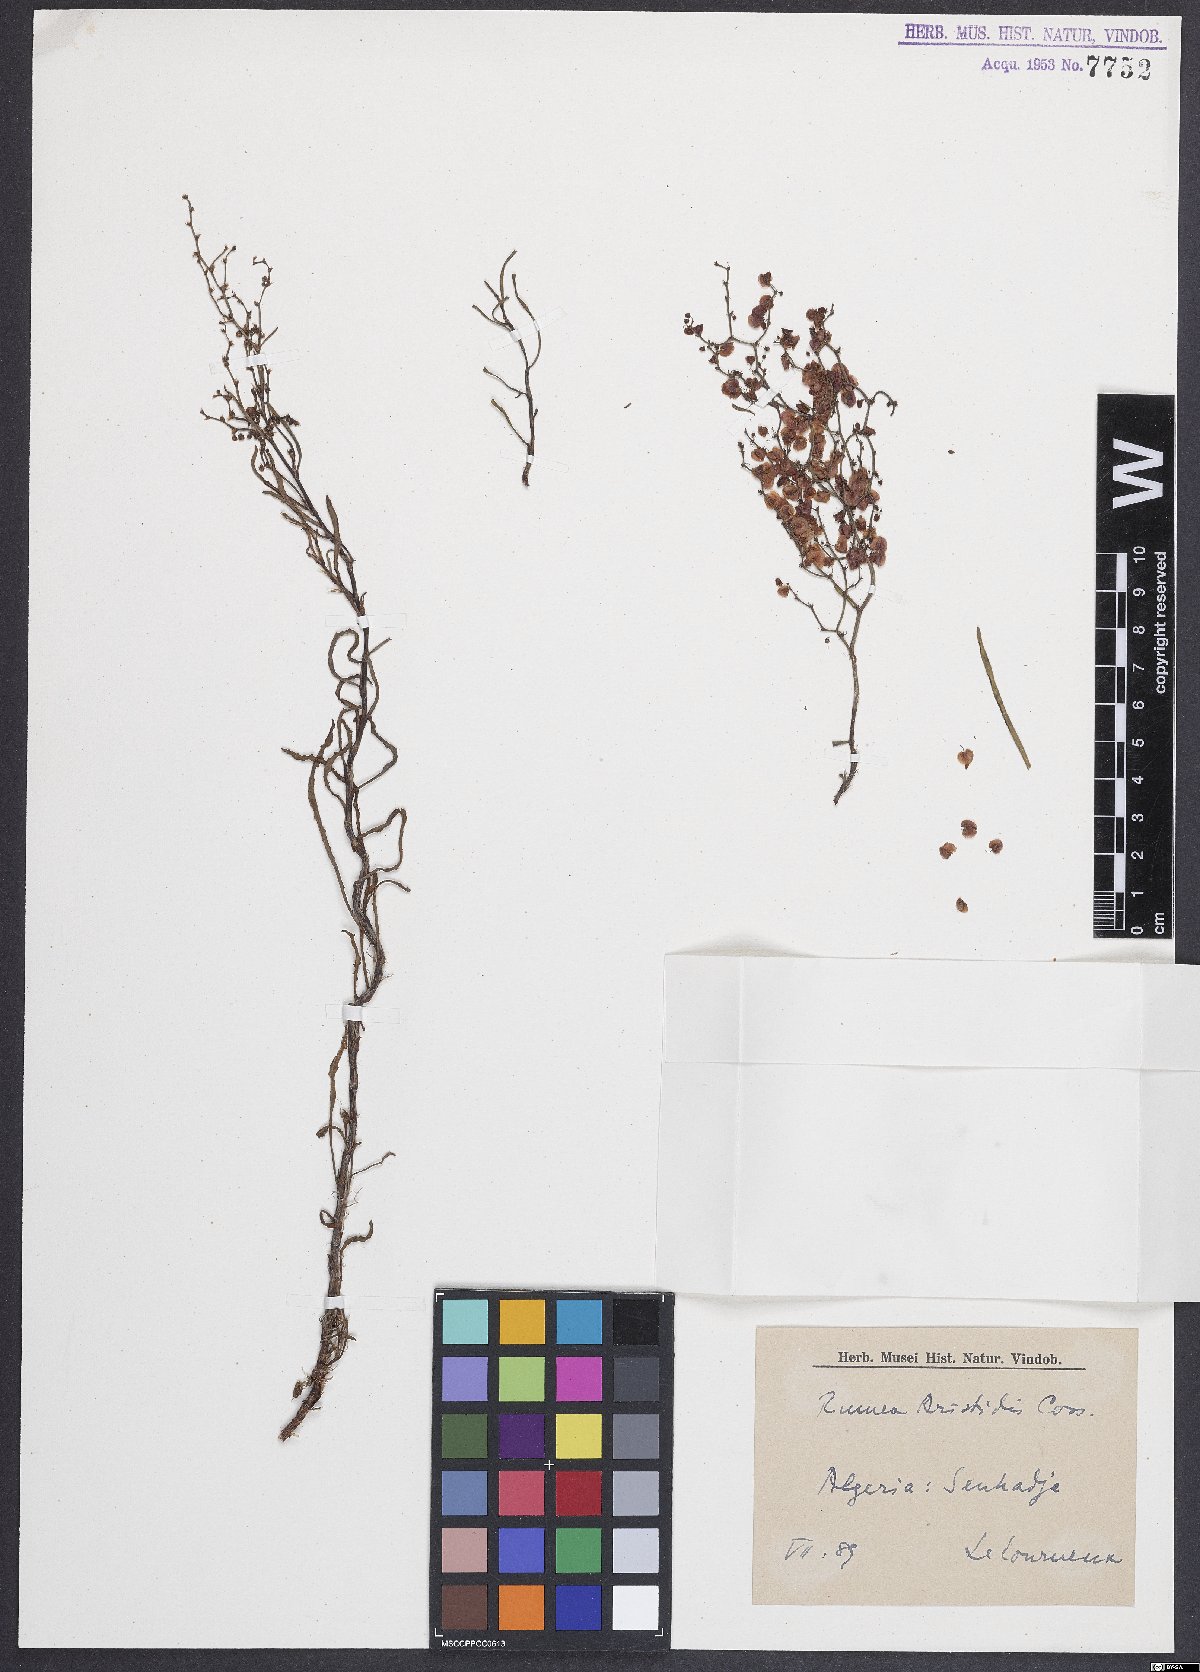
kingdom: Plantae
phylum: Tracheophyta
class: Magnoliopsida
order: Caryophyllales
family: Polygonaceae
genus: Rumex
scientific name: Rumex aristidis
